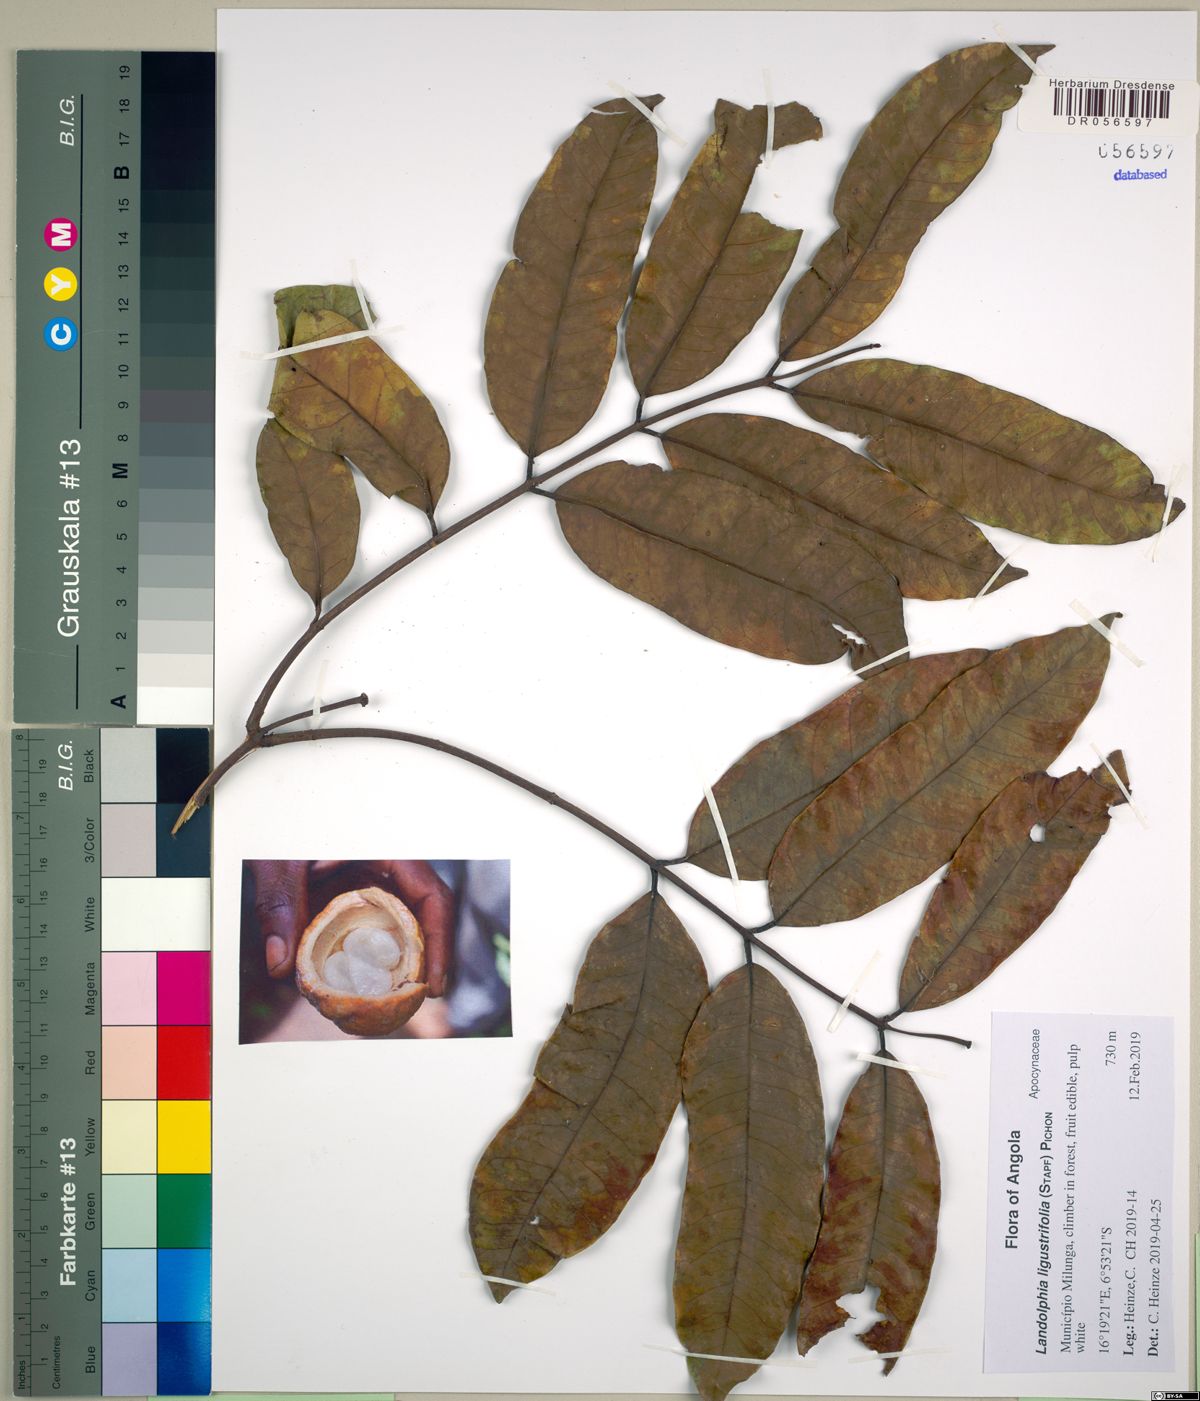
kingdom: Plantae
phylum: Tracheophyta
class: Magnoliopsida
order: Gentianales
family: Apocynaceae
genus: Landolphia
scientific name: Landolphia buchananii
